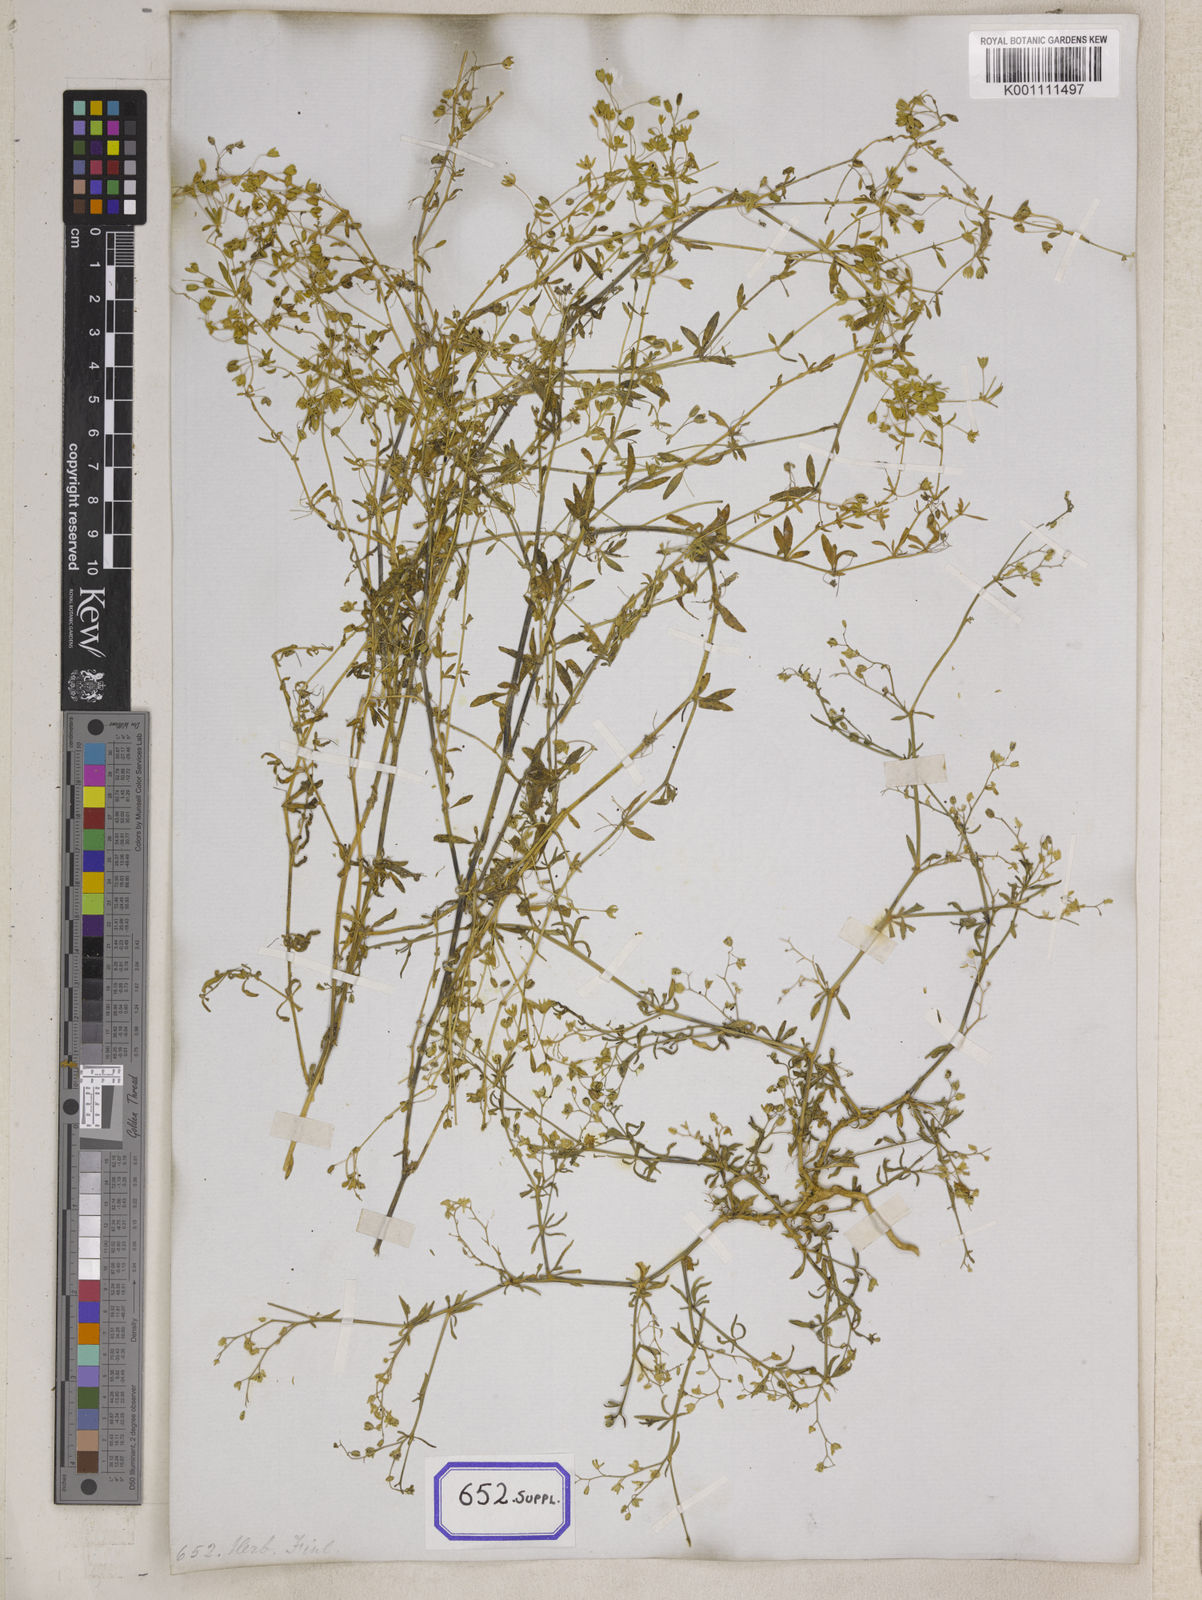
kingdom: Plantae
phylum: Tracheophyta
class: Magnoliopsida
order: Caryophyllales
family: Molluginaceae
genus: Mollugo
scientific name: Mollugo disticha
